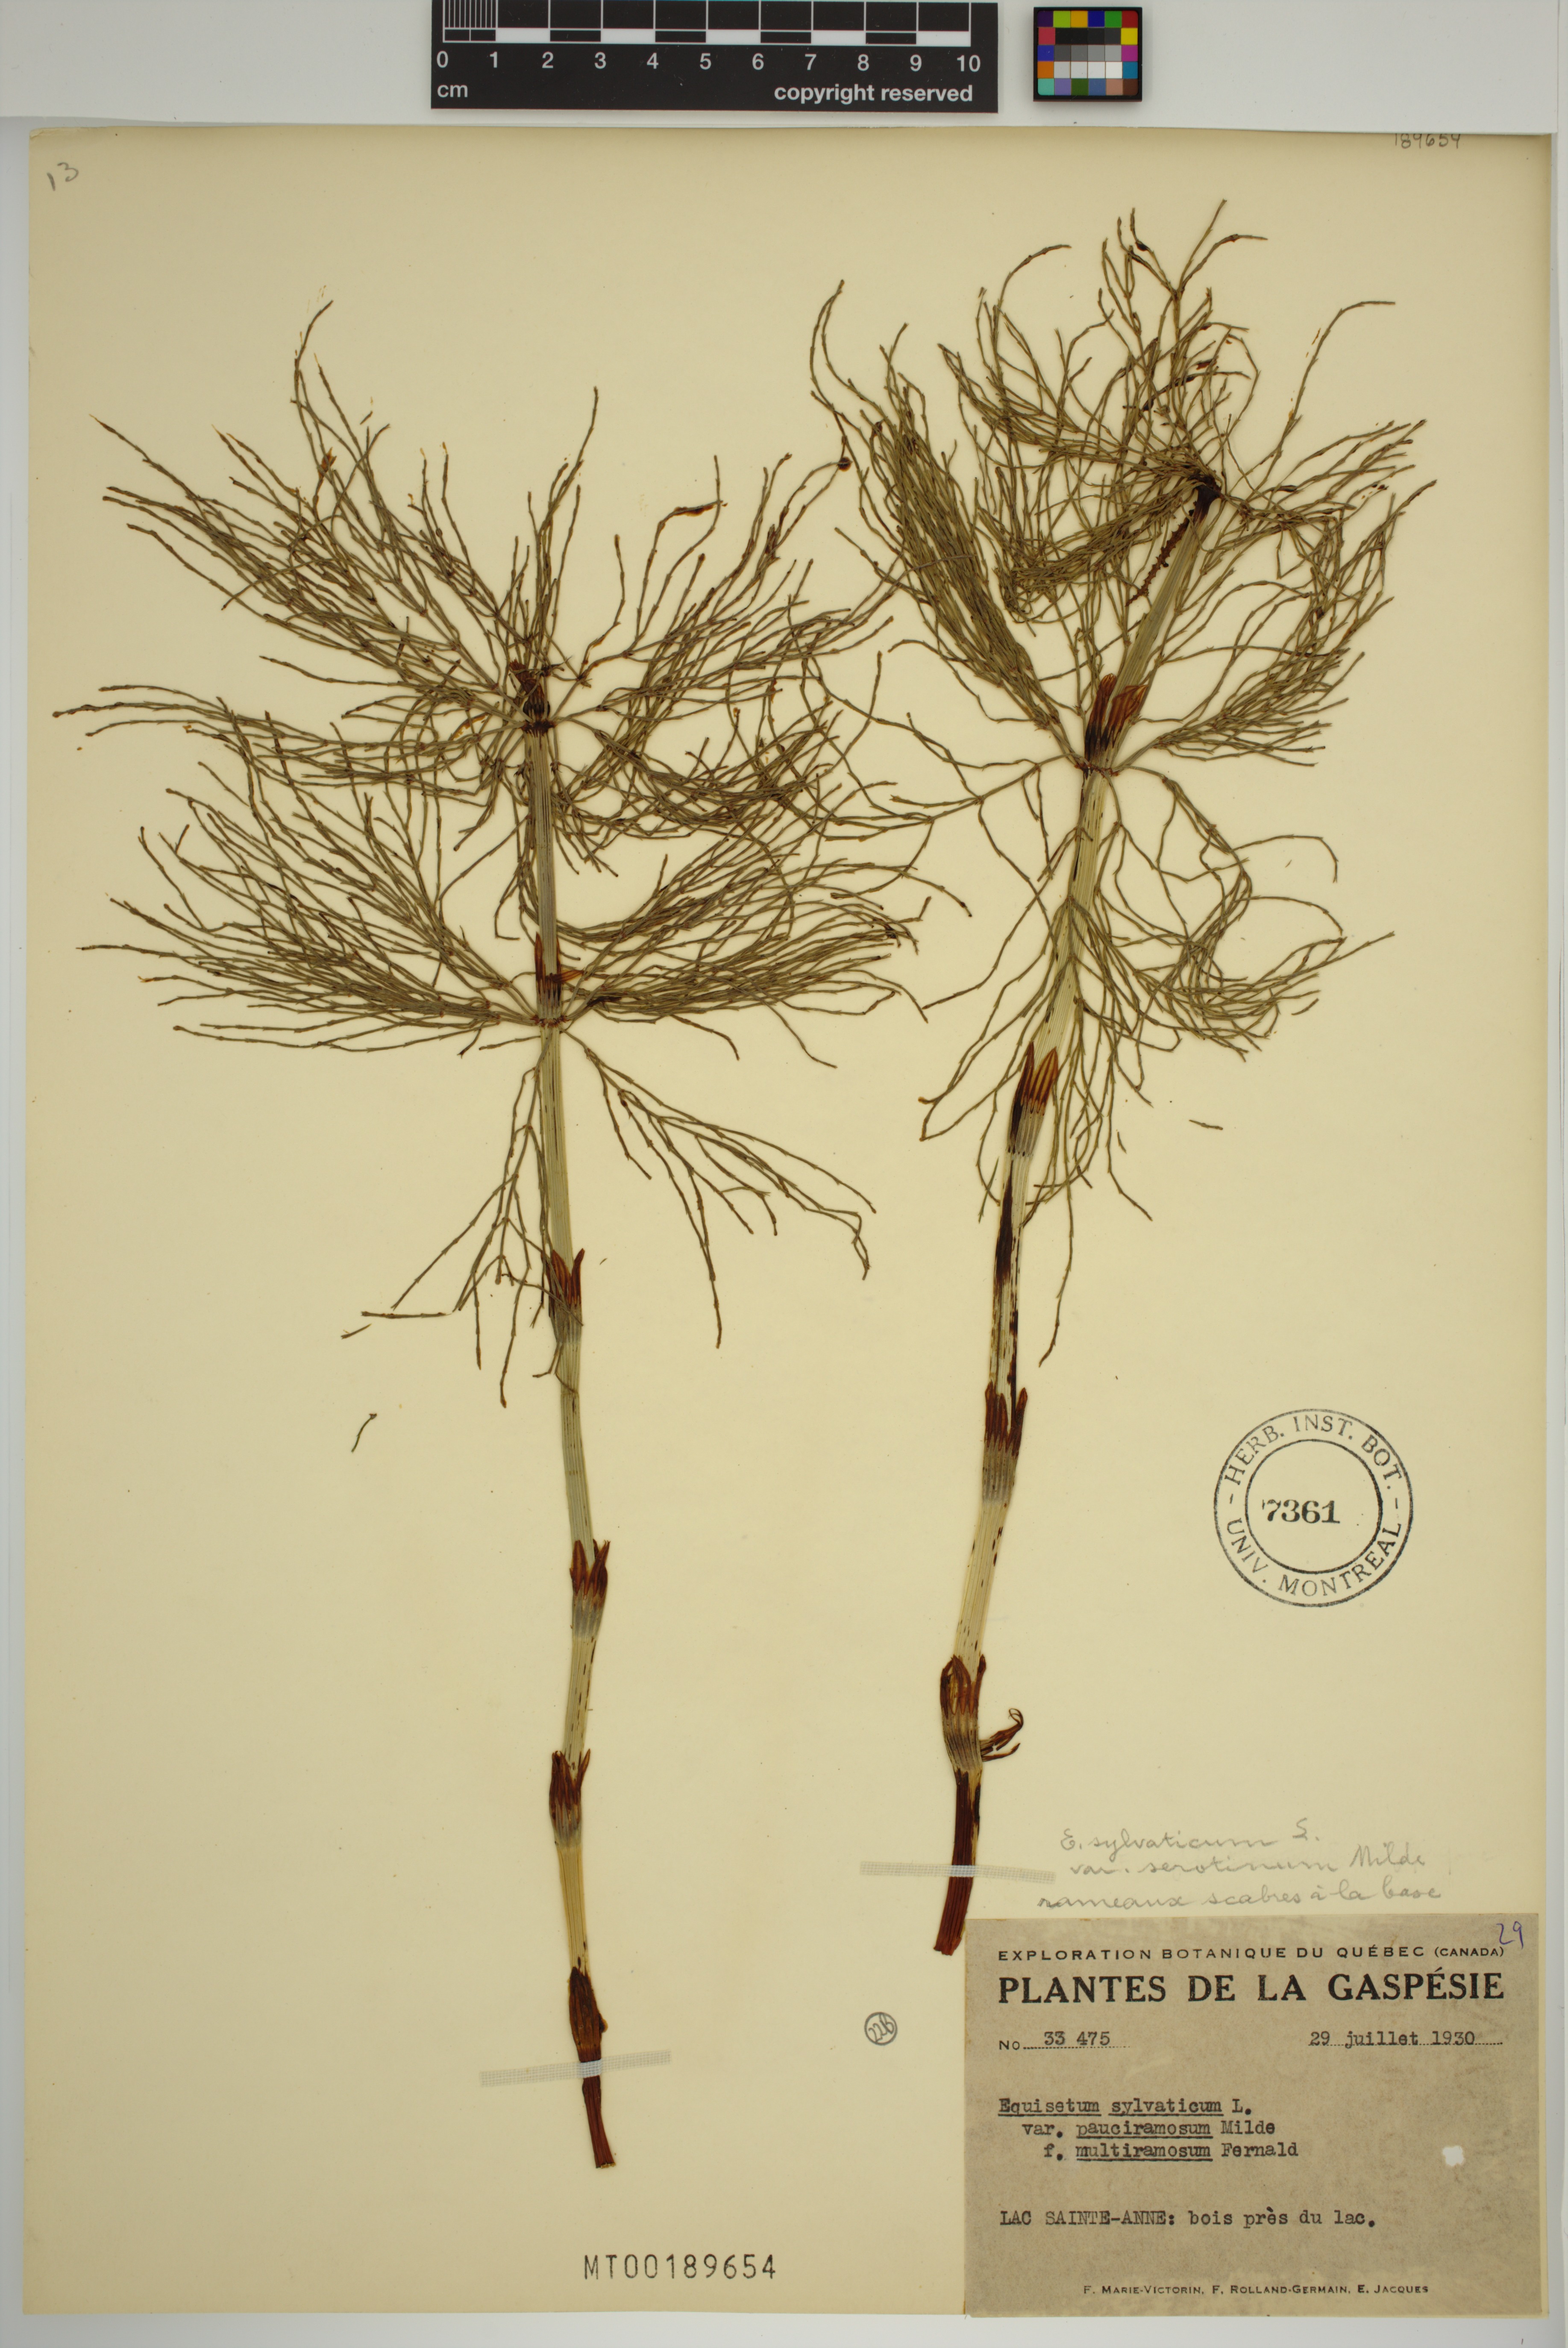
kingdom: Plantae
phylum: Tracheophyta
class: Polypodiopsida
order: Equisetales
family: Equisetaceae
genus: Equisetum
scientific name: Equisetum sylvaticum
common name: Wood horsetail
